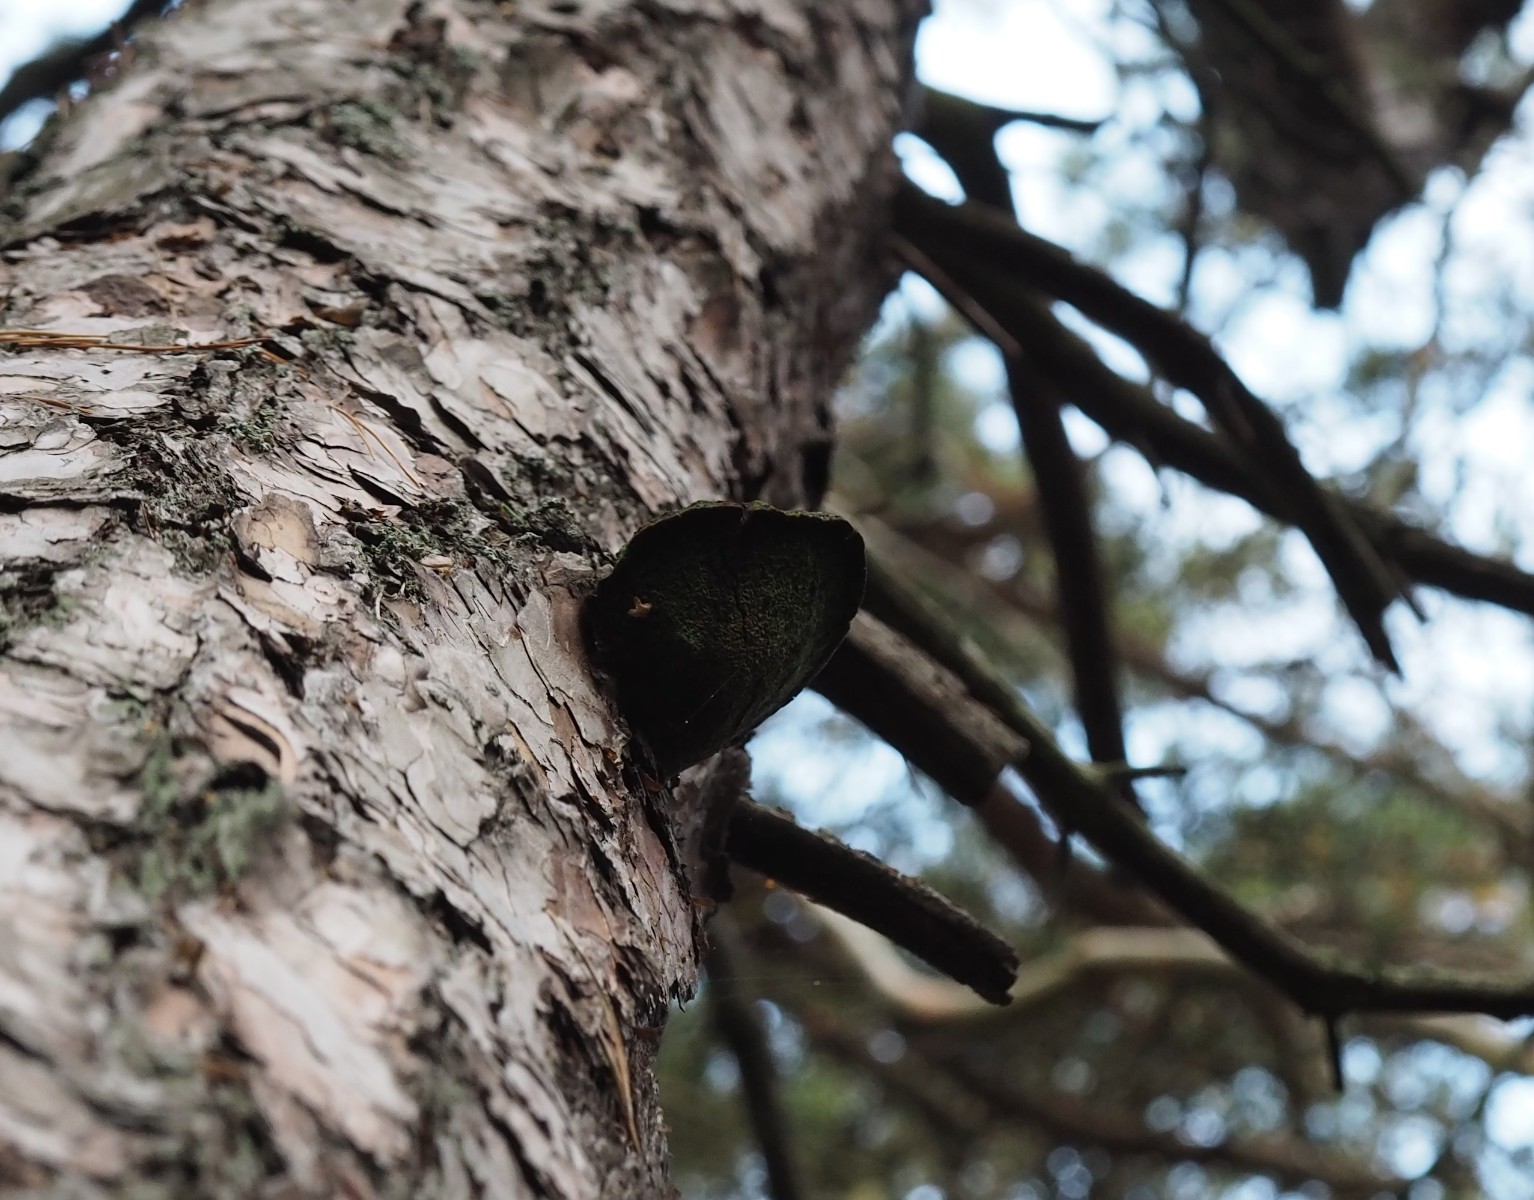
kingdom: Fungi
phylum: Basidiomycota
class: Agaricomycetes
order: Hymenochaetales
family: Hymenochaetaceae
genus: Porodaedalea
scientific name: Porodaedalea pini
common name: fyrre-ildporesvamp
